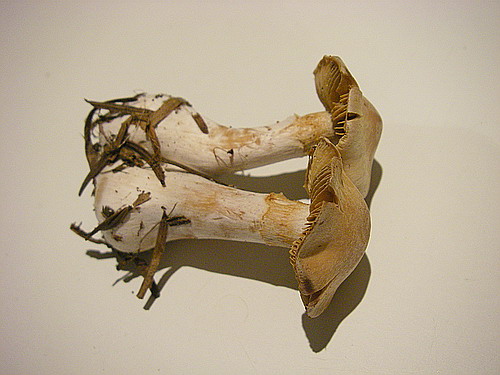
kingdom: Fungi
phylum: Basidiomycota
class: Agaricomycetes
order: Agaricales
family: Cortinariaceae
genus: Thaxterogaster
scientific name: Thaxterogaster barbatus
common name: elfenbens-slørhat
